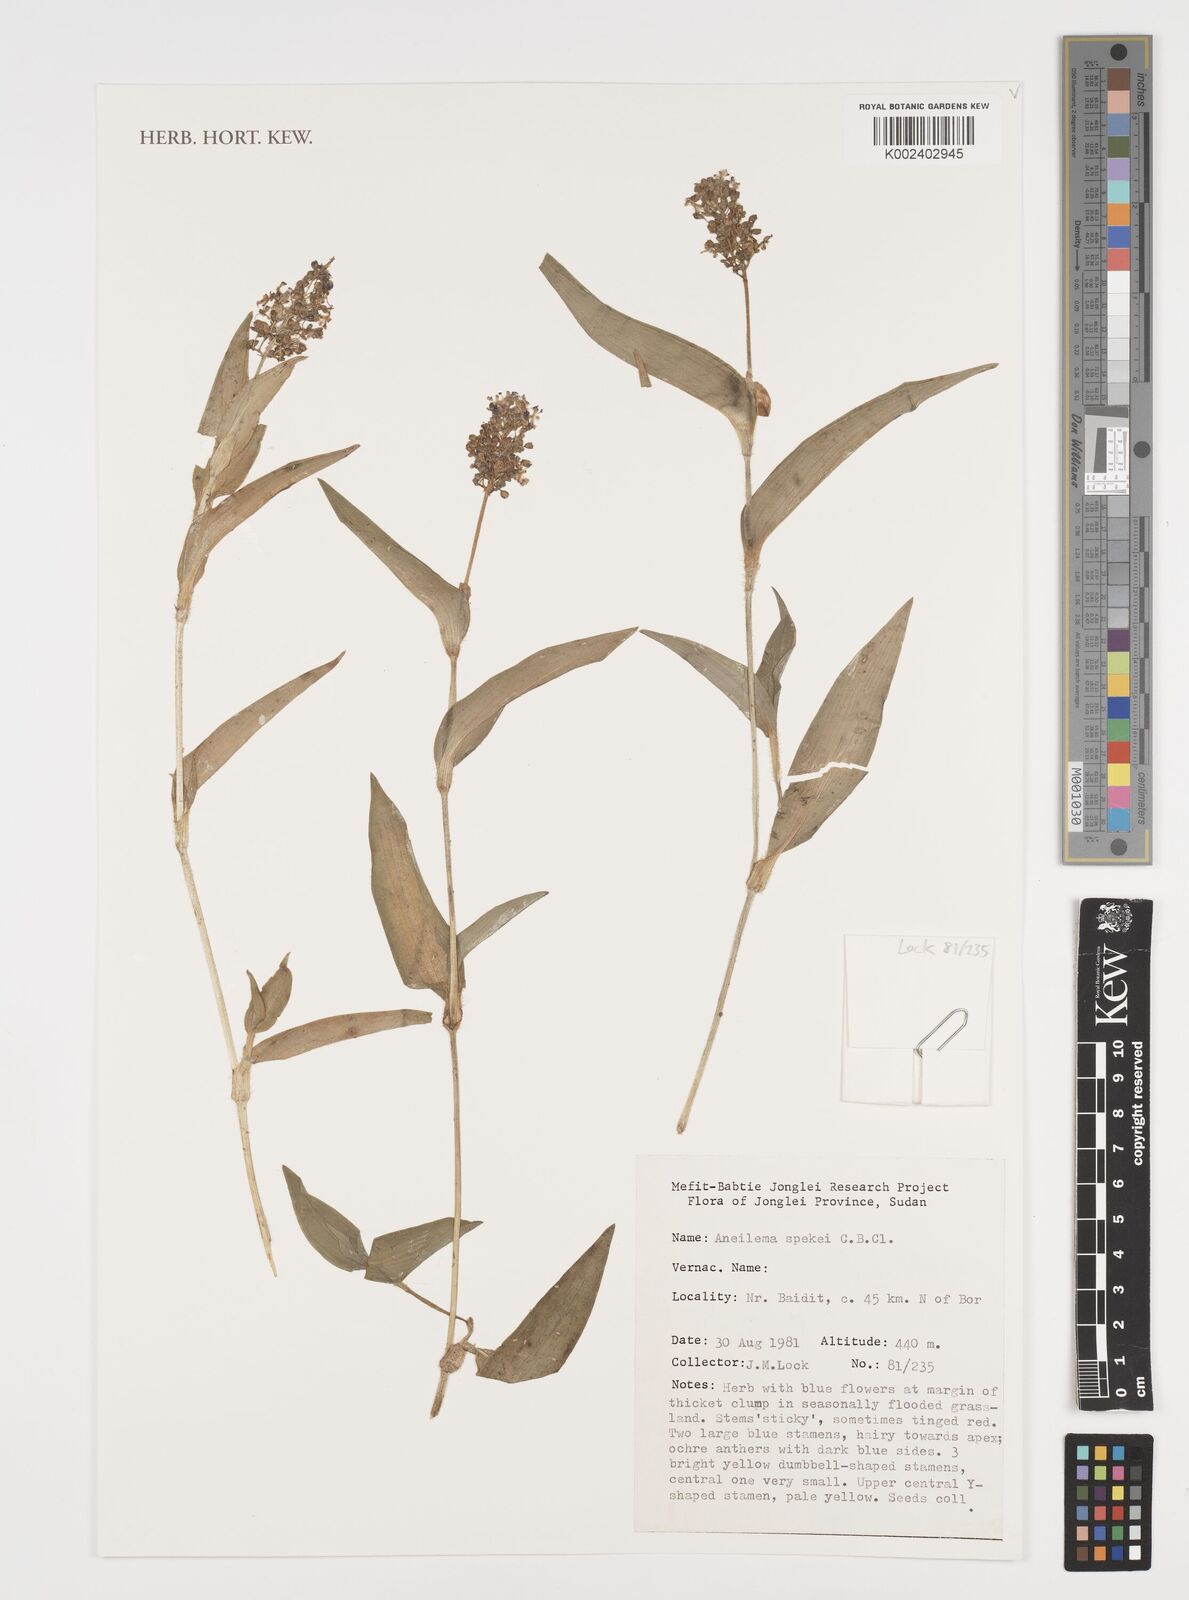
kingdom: Plantae
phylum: Tracheophyta
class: Liliopsida
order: Commelinales
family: Commelinaceae
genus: Aneilema
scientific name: Aneilema spekei
